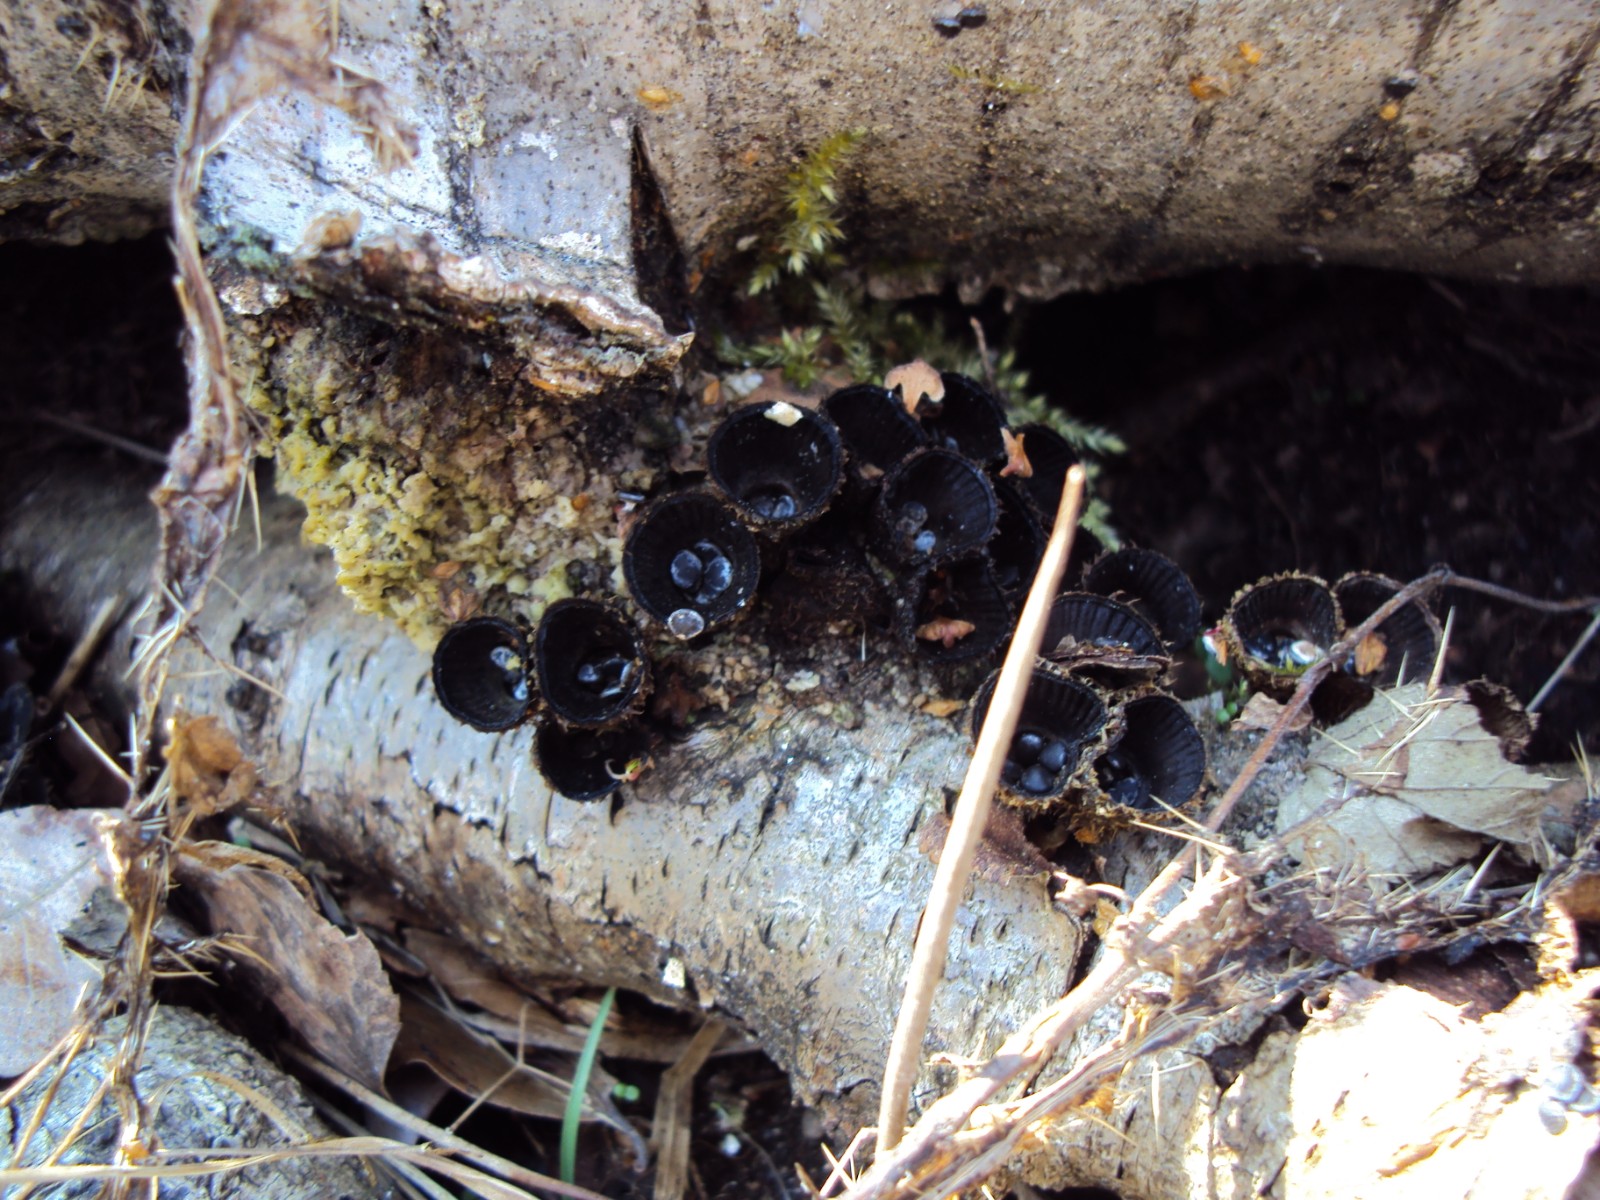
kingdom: Fungi
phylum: Basidiomycota
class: Agaricomycetes
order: Agaricales
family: Agaricaceae
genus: Cyathus
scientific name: Cyathus striatus
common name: stribet redesvamp
